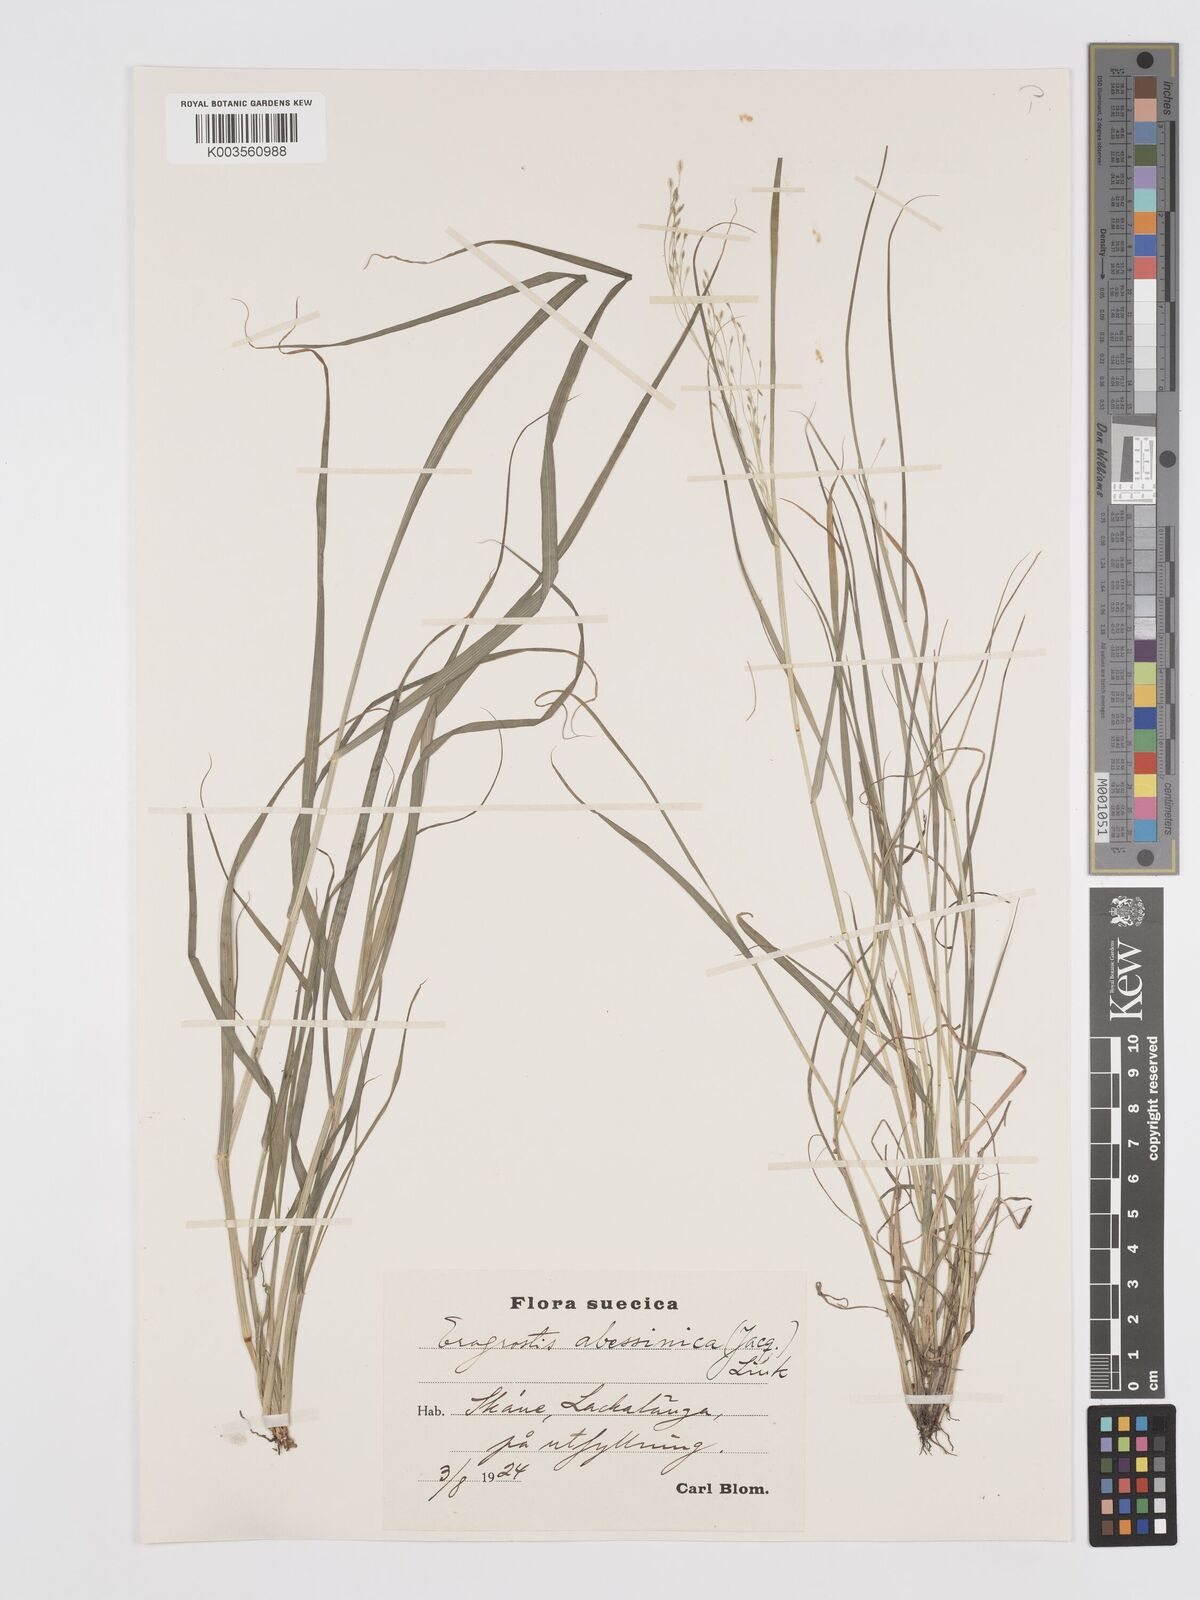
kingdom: Plantae
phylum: Tracheophyta
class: Liliopsida
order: Poales
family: Poaceae
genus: Eragrostis
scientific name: Eragrostis tef
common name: Teff
